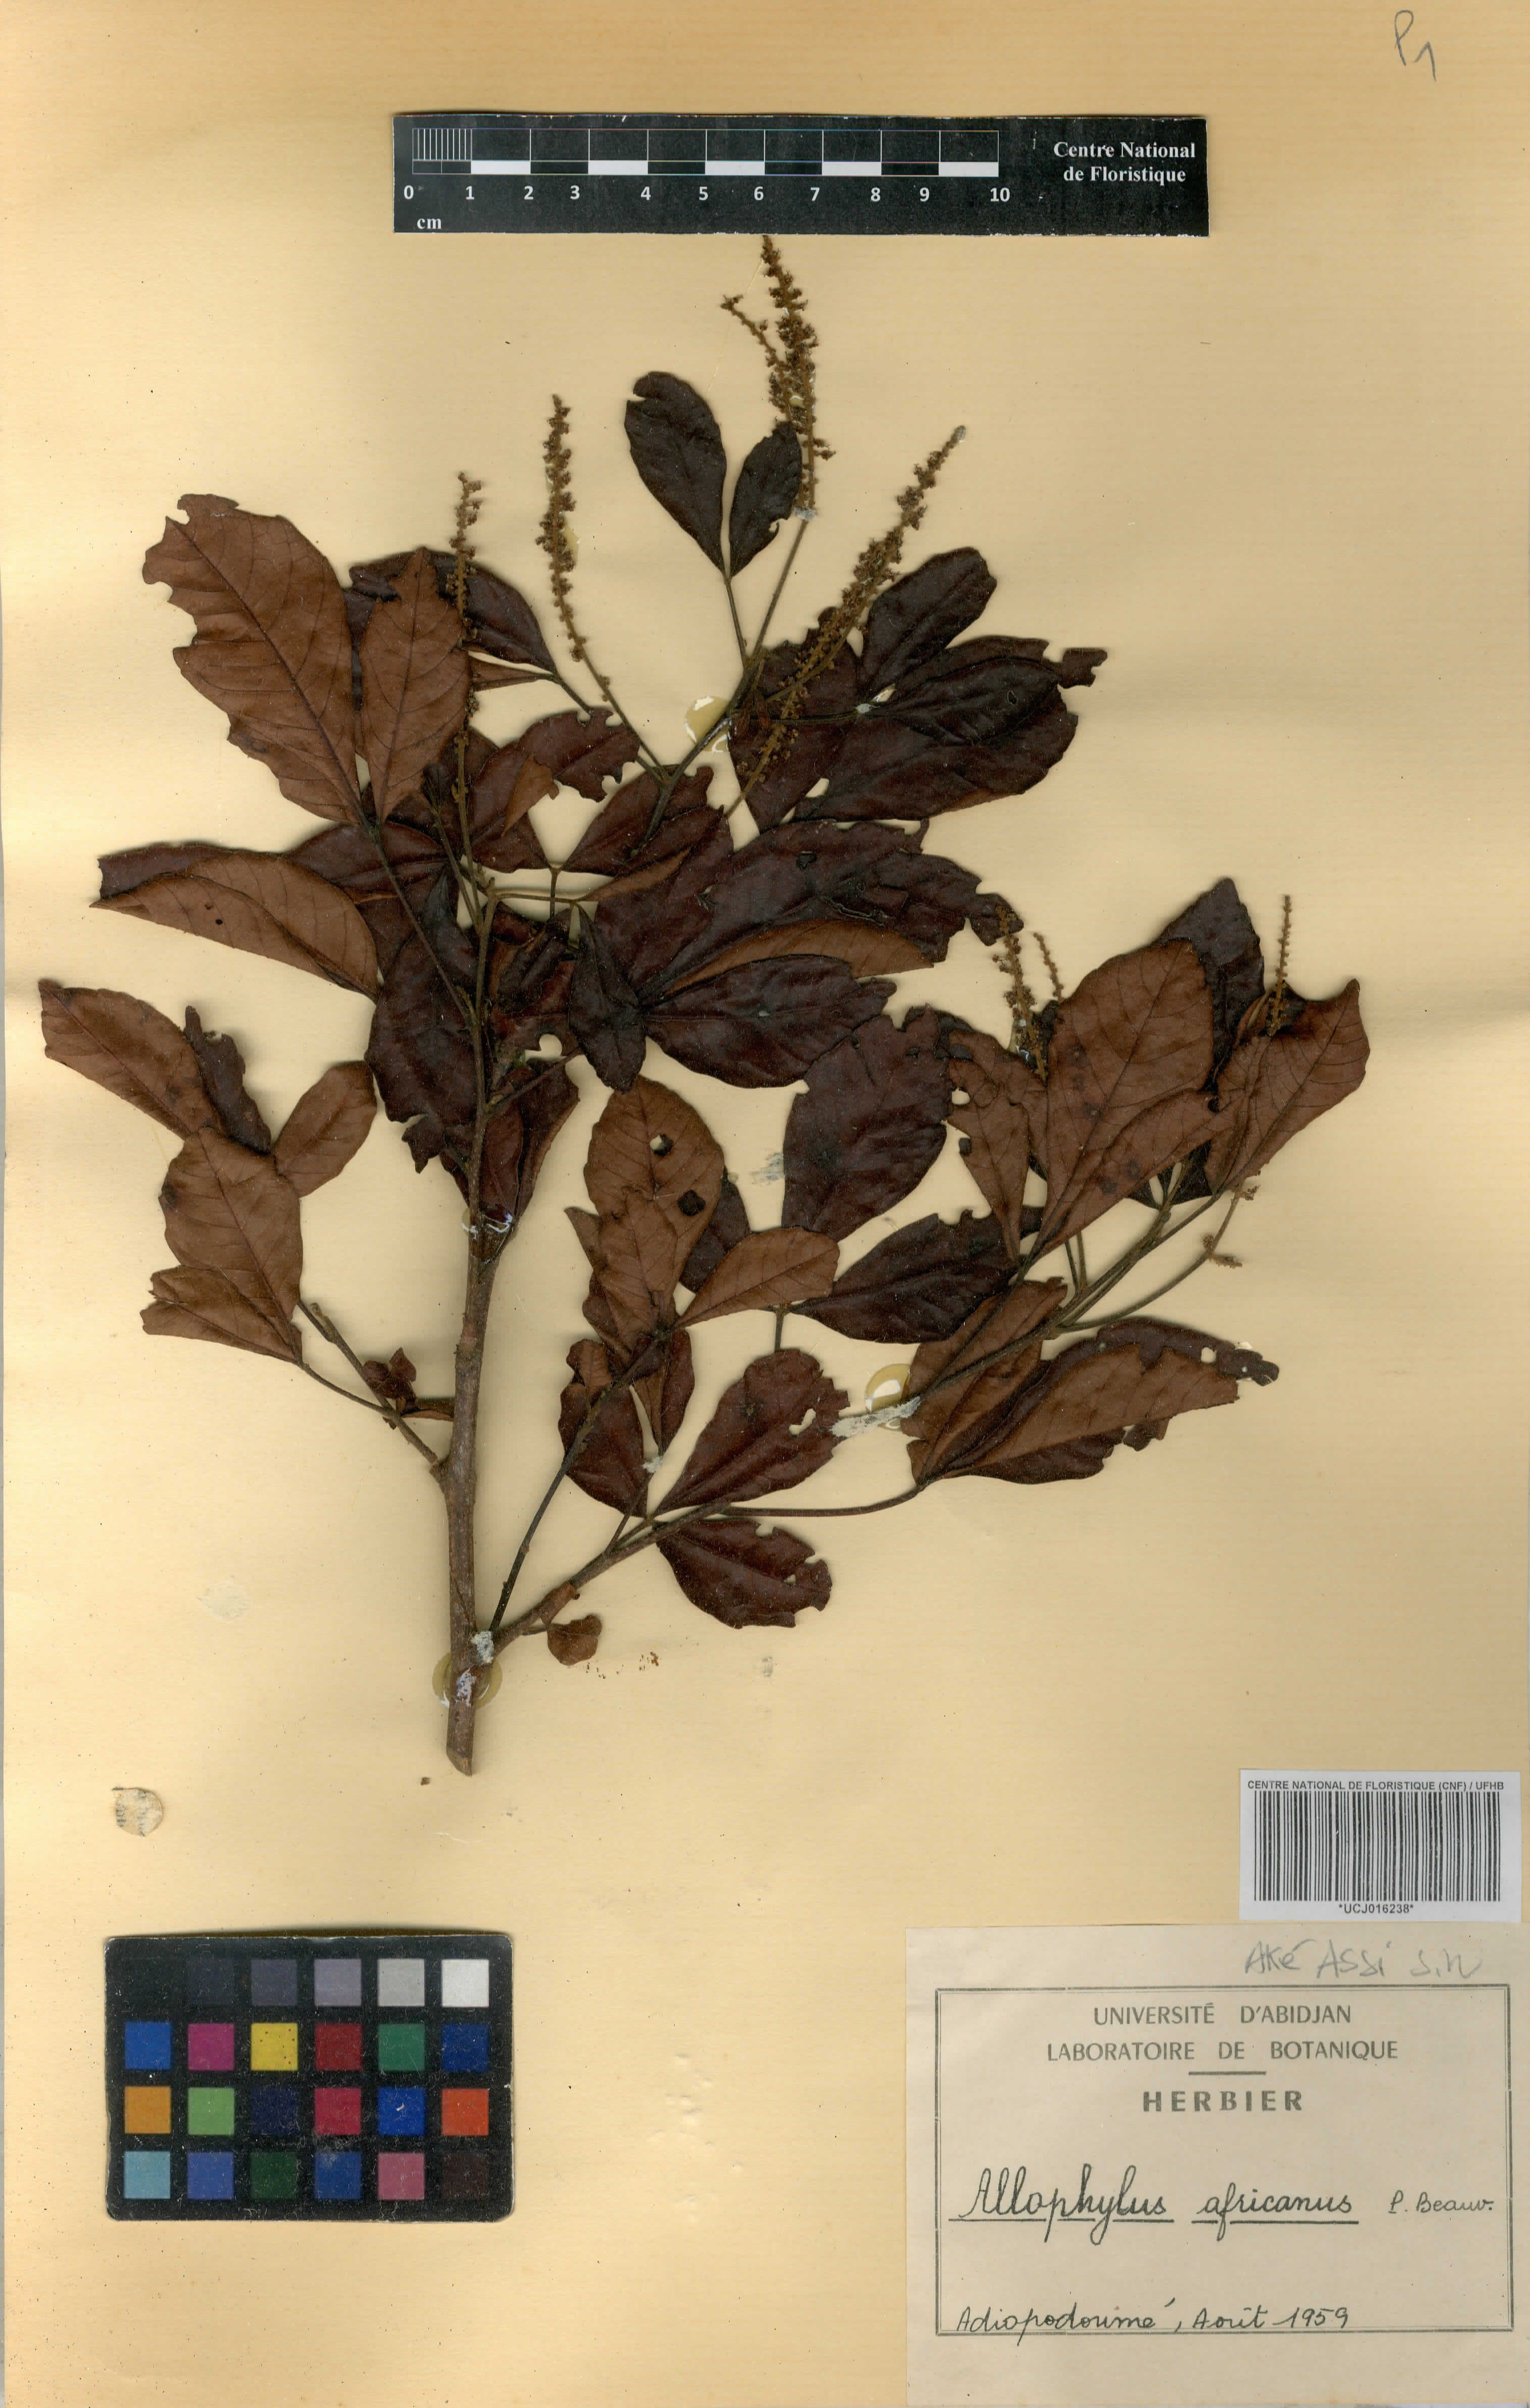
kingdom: Plantae
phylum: Tracheophyta
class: Magnoliopsida
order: Sapindales
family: Sapindaceae
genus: Allophylus
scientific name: Allophylus africanus
